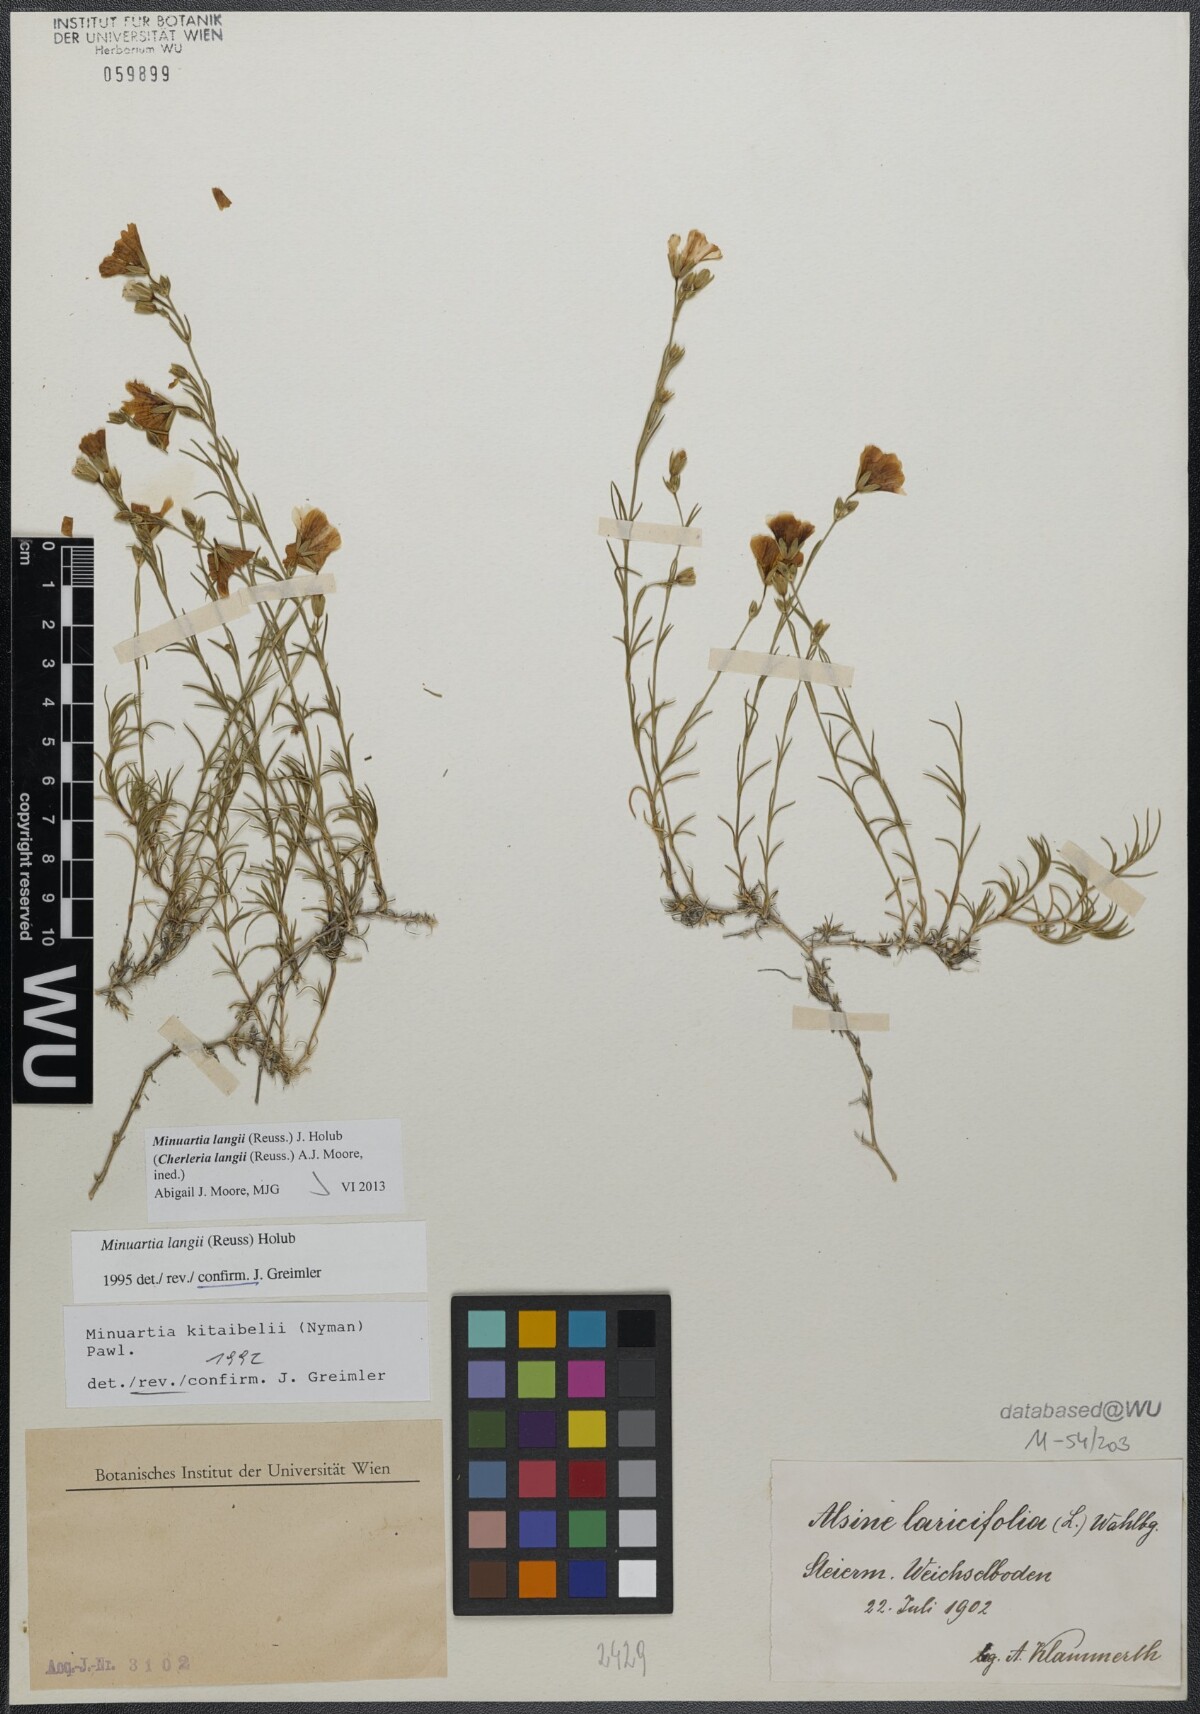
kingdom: Plantae
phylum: Tracheophyta
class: Magnoliopsida
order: Caryophyllales
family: Caryophyllaceae
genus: Cherleria
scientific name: Cherleria langii
